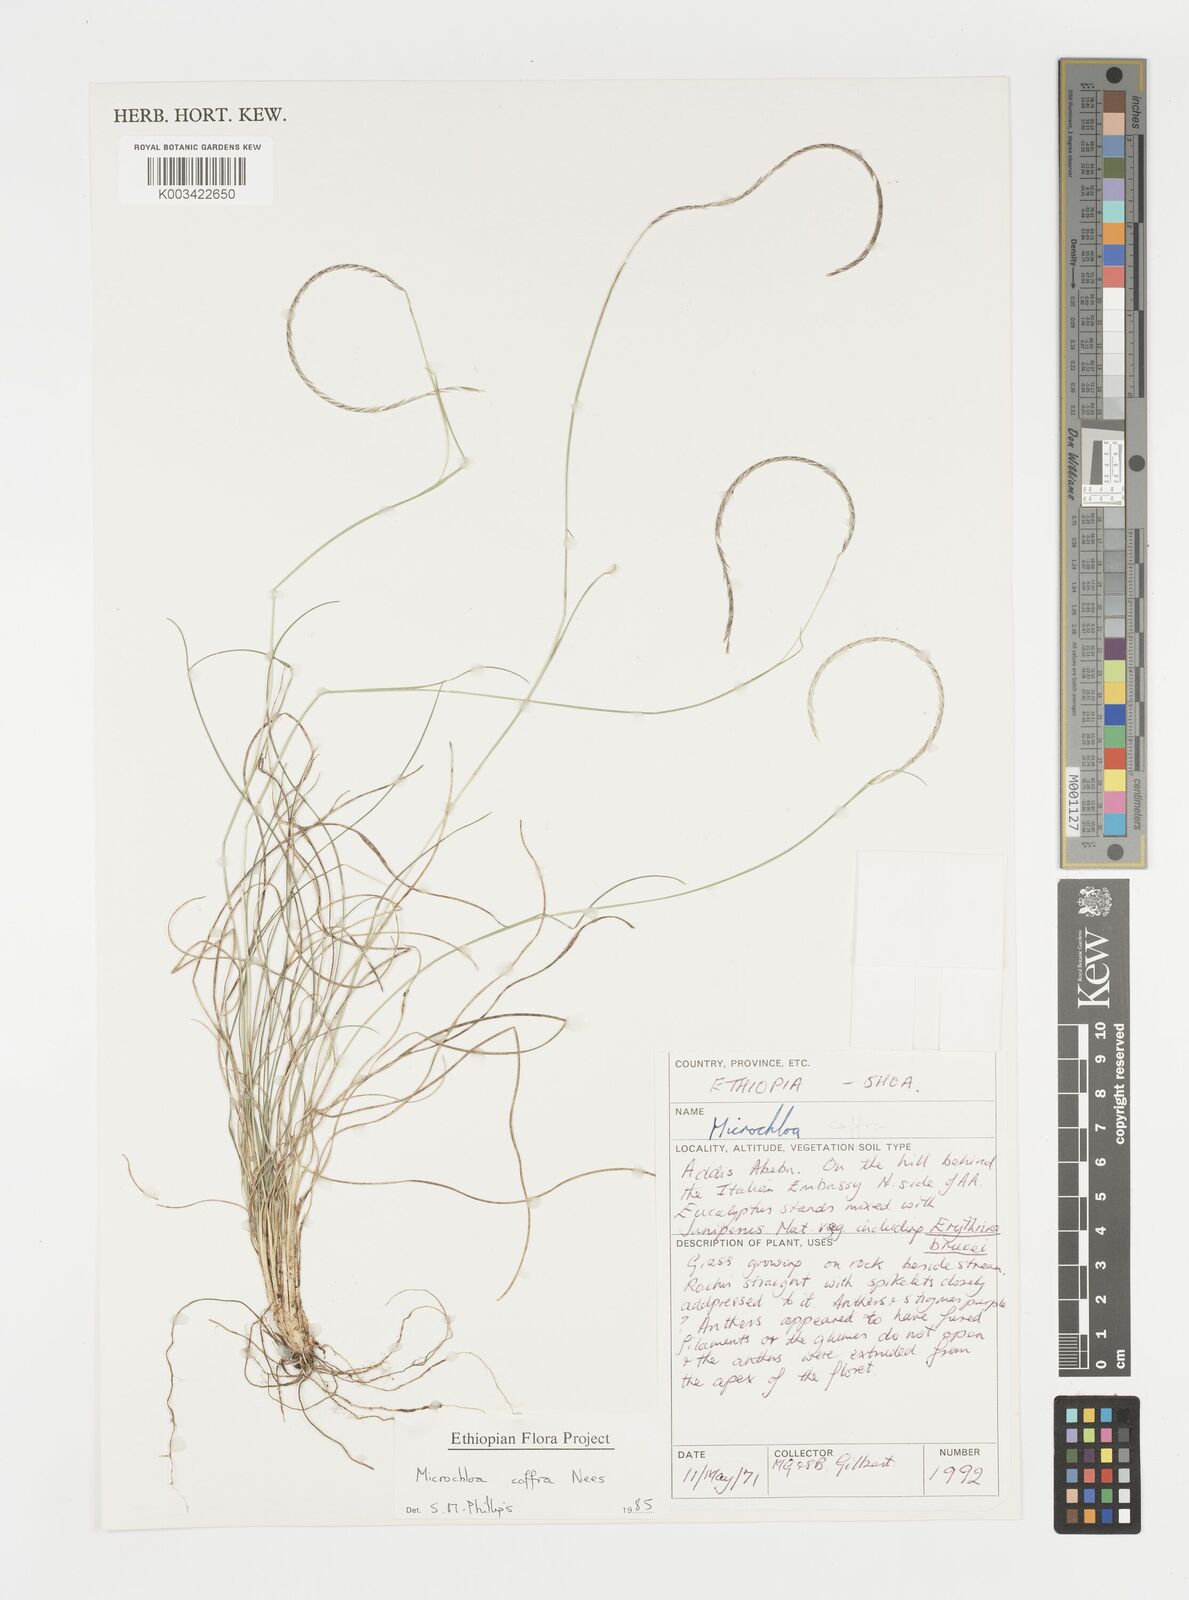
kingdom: Plantae
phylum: Tracheophyta
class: Liliopsida
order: Poales
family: Poaceae
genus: Microchloa
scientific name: Microchloa caffra
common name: Pincushion grass
